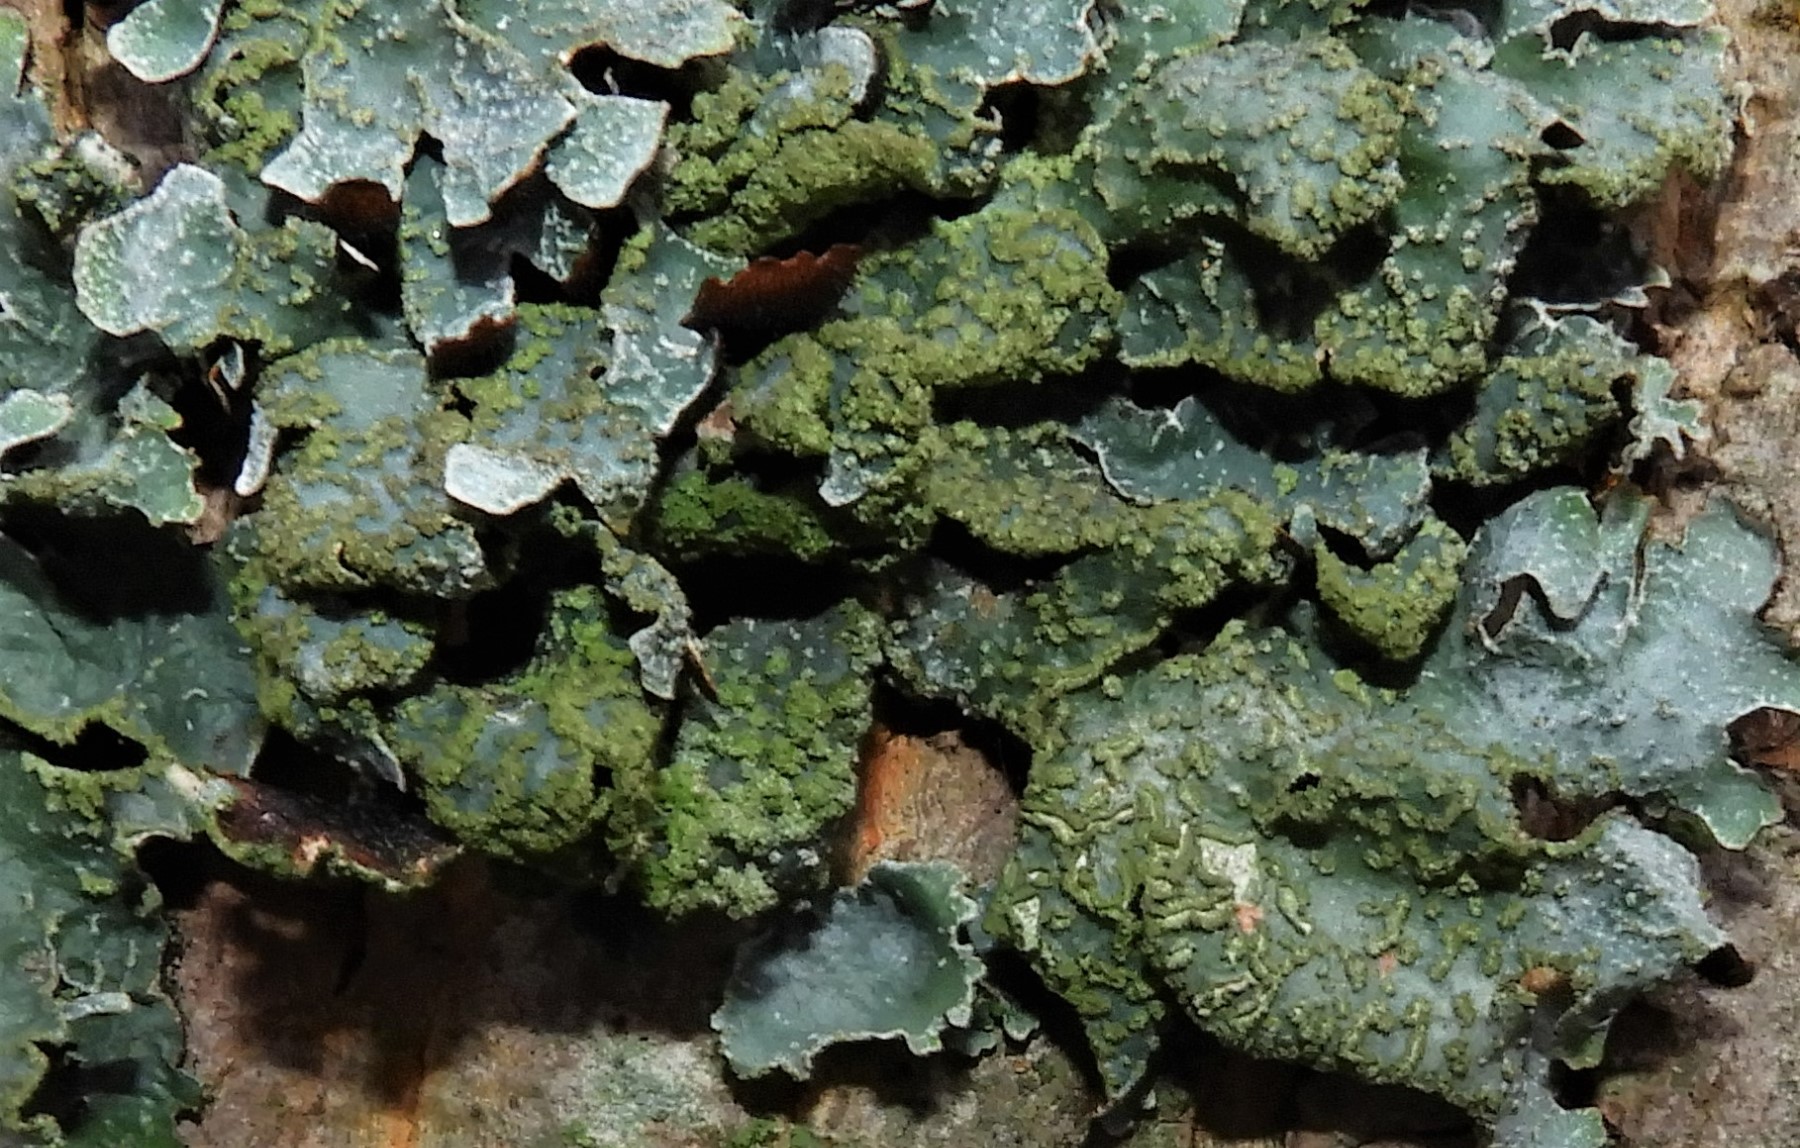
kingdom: Fungi
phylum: Ascomycota
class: Lecanoromycetes
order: Lecanorales
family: Parmeliaceae
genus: Parmelia
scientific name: Parmelia sulcata
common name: rynket skållav
